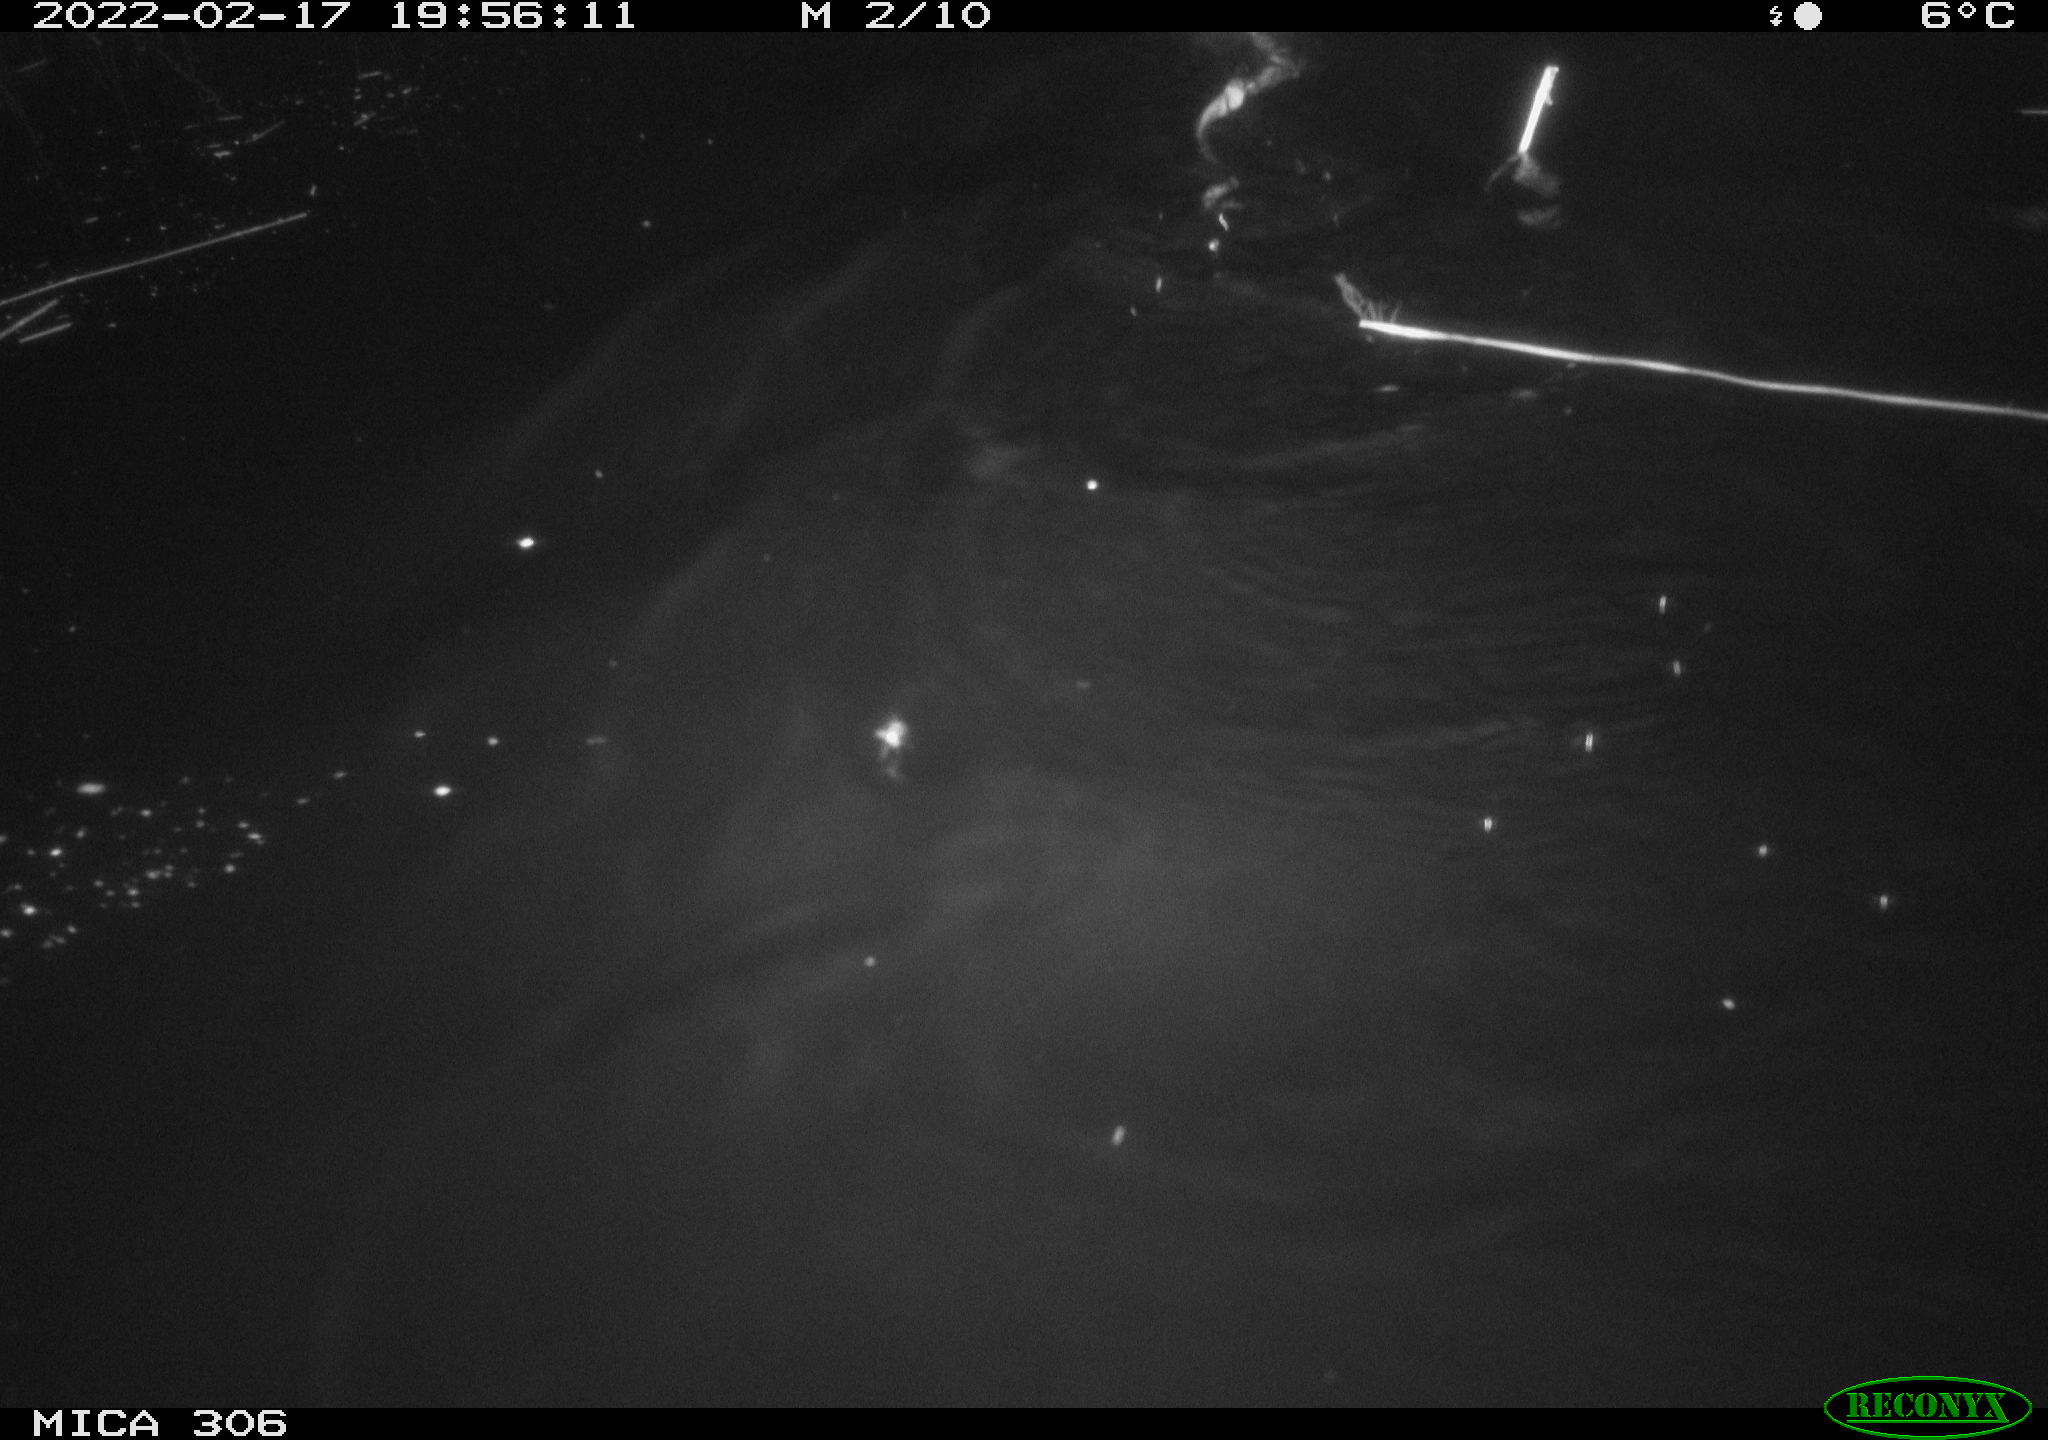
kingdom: Animalia
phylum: Chordata
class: Mammalia
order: Rodentia
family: Cricetidae
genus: Ondatra
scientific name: Ondatra zibethicus
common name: Muskrat
